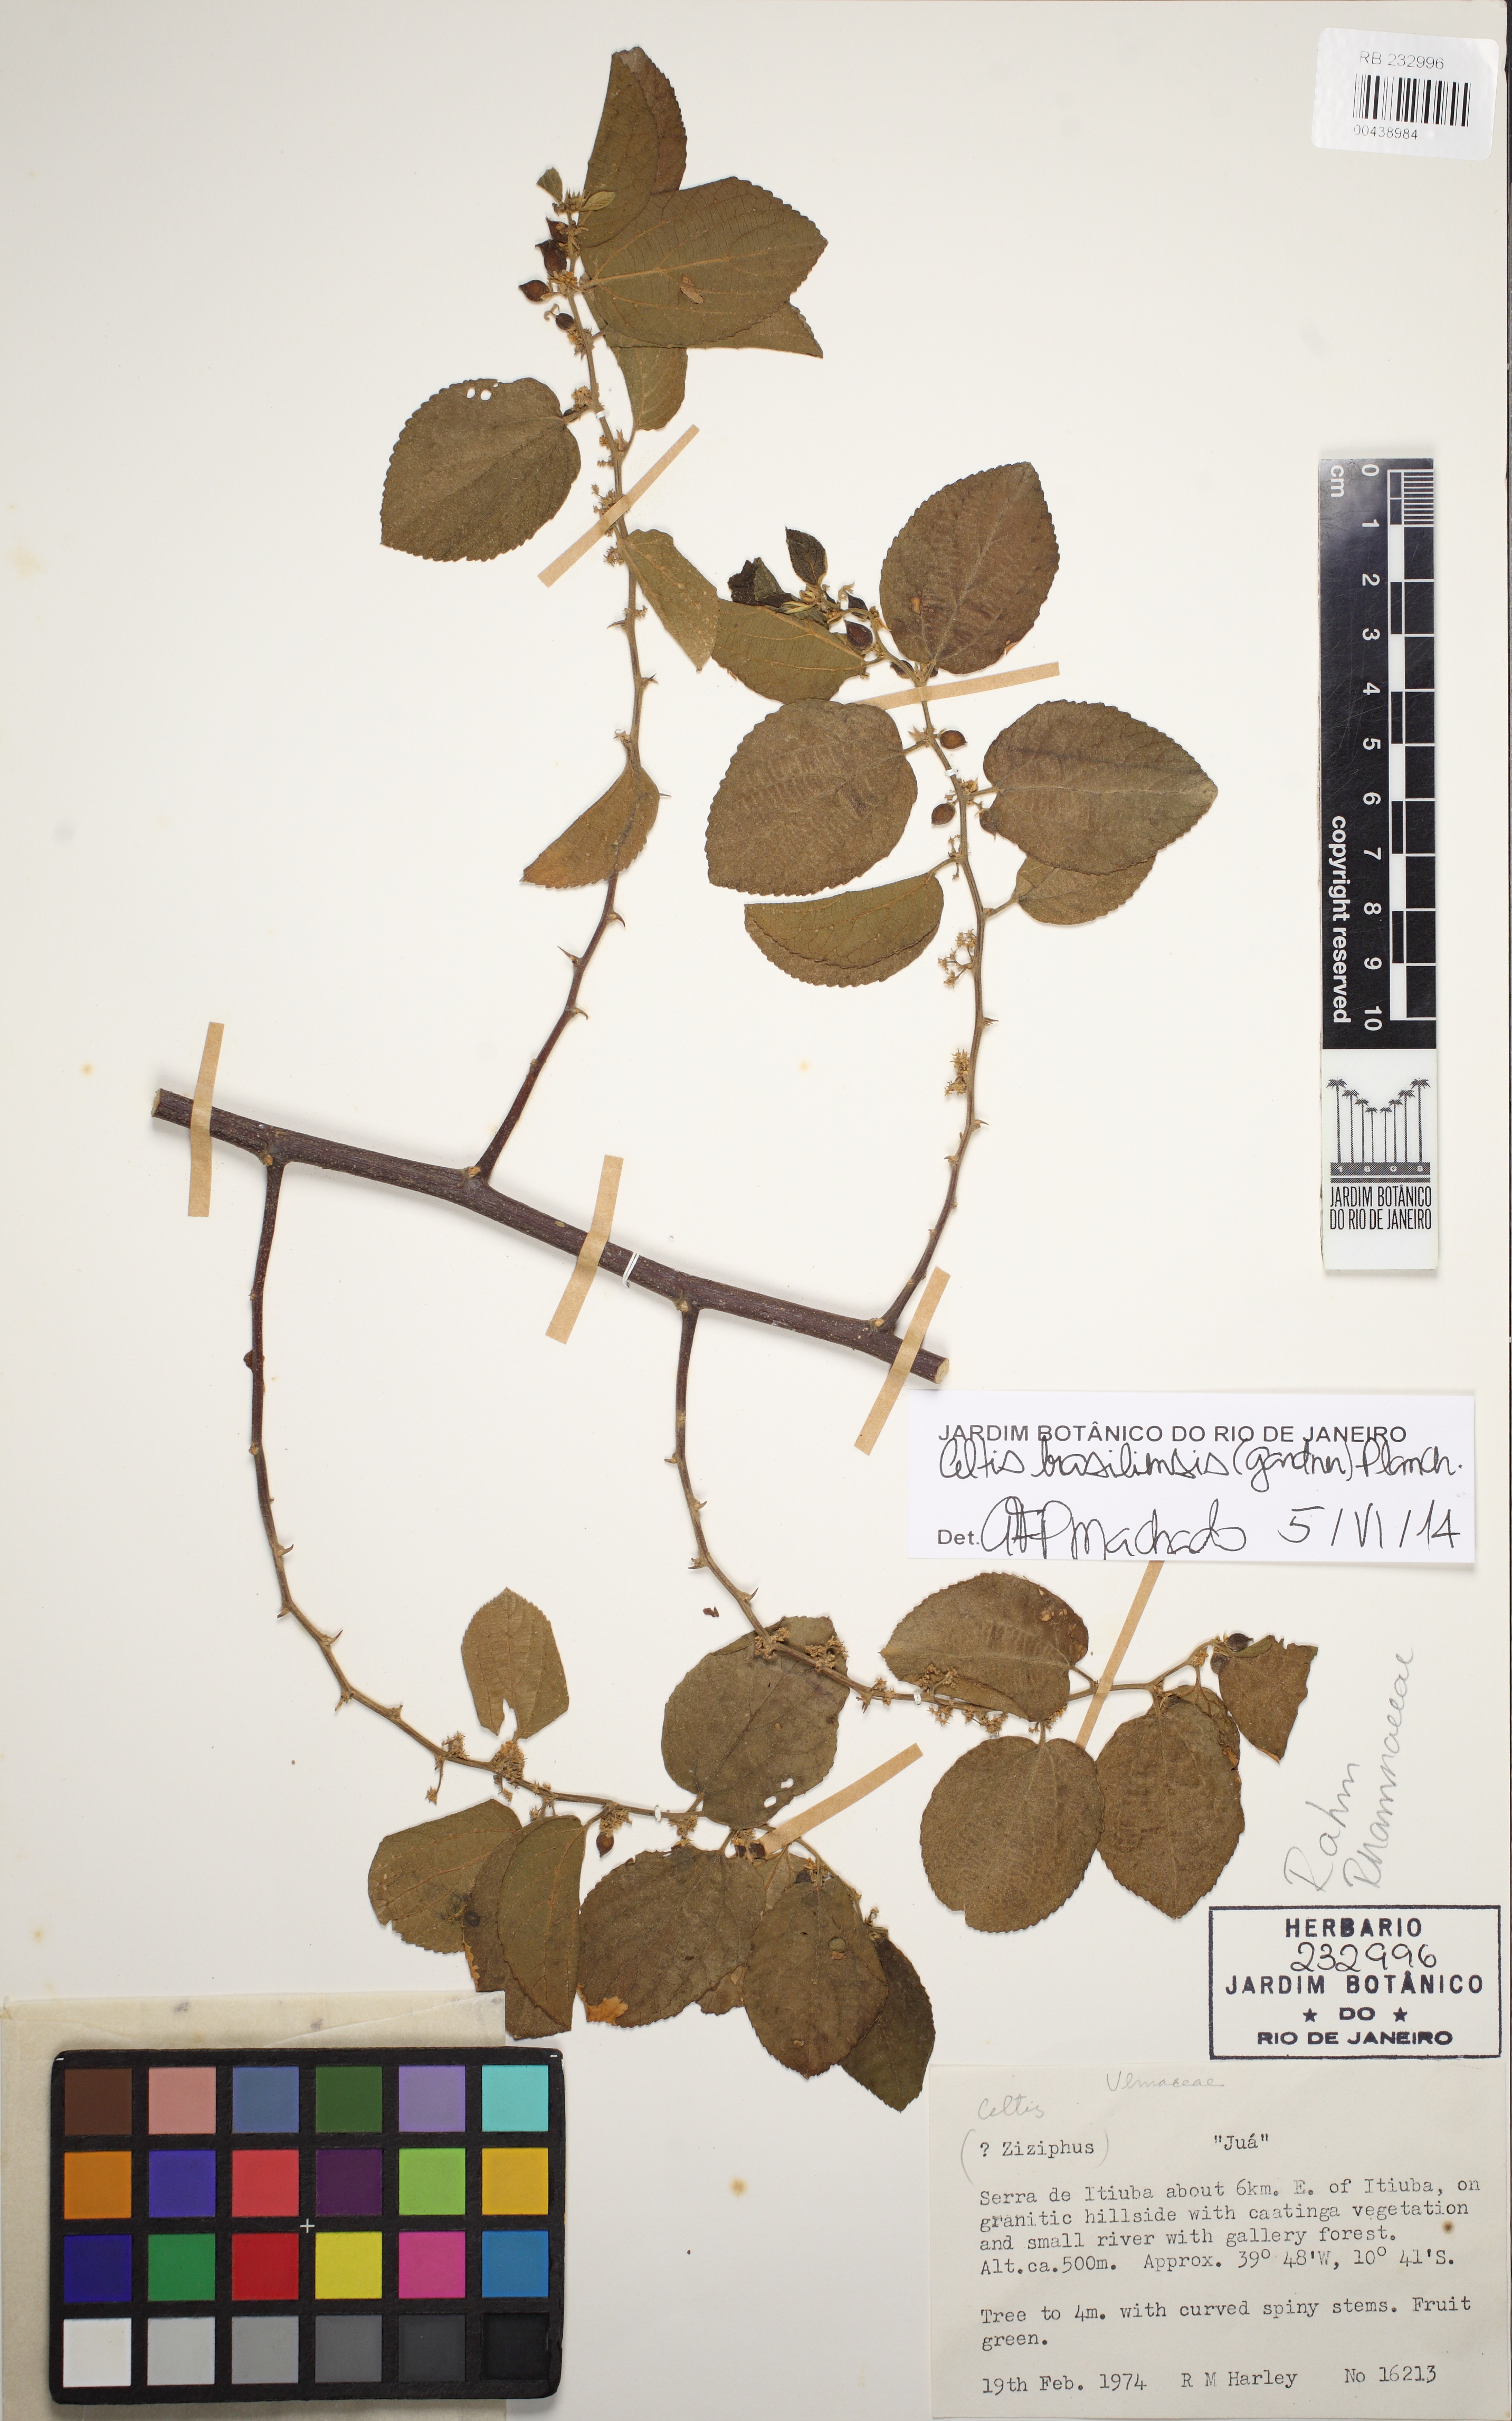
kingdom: Plantae
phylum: Tracheophyta
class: Magnoliopsida
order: Rosales
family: Cannabaceae
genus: Celtis
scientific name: Celtis iguanaea
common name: Iguana hackberry
